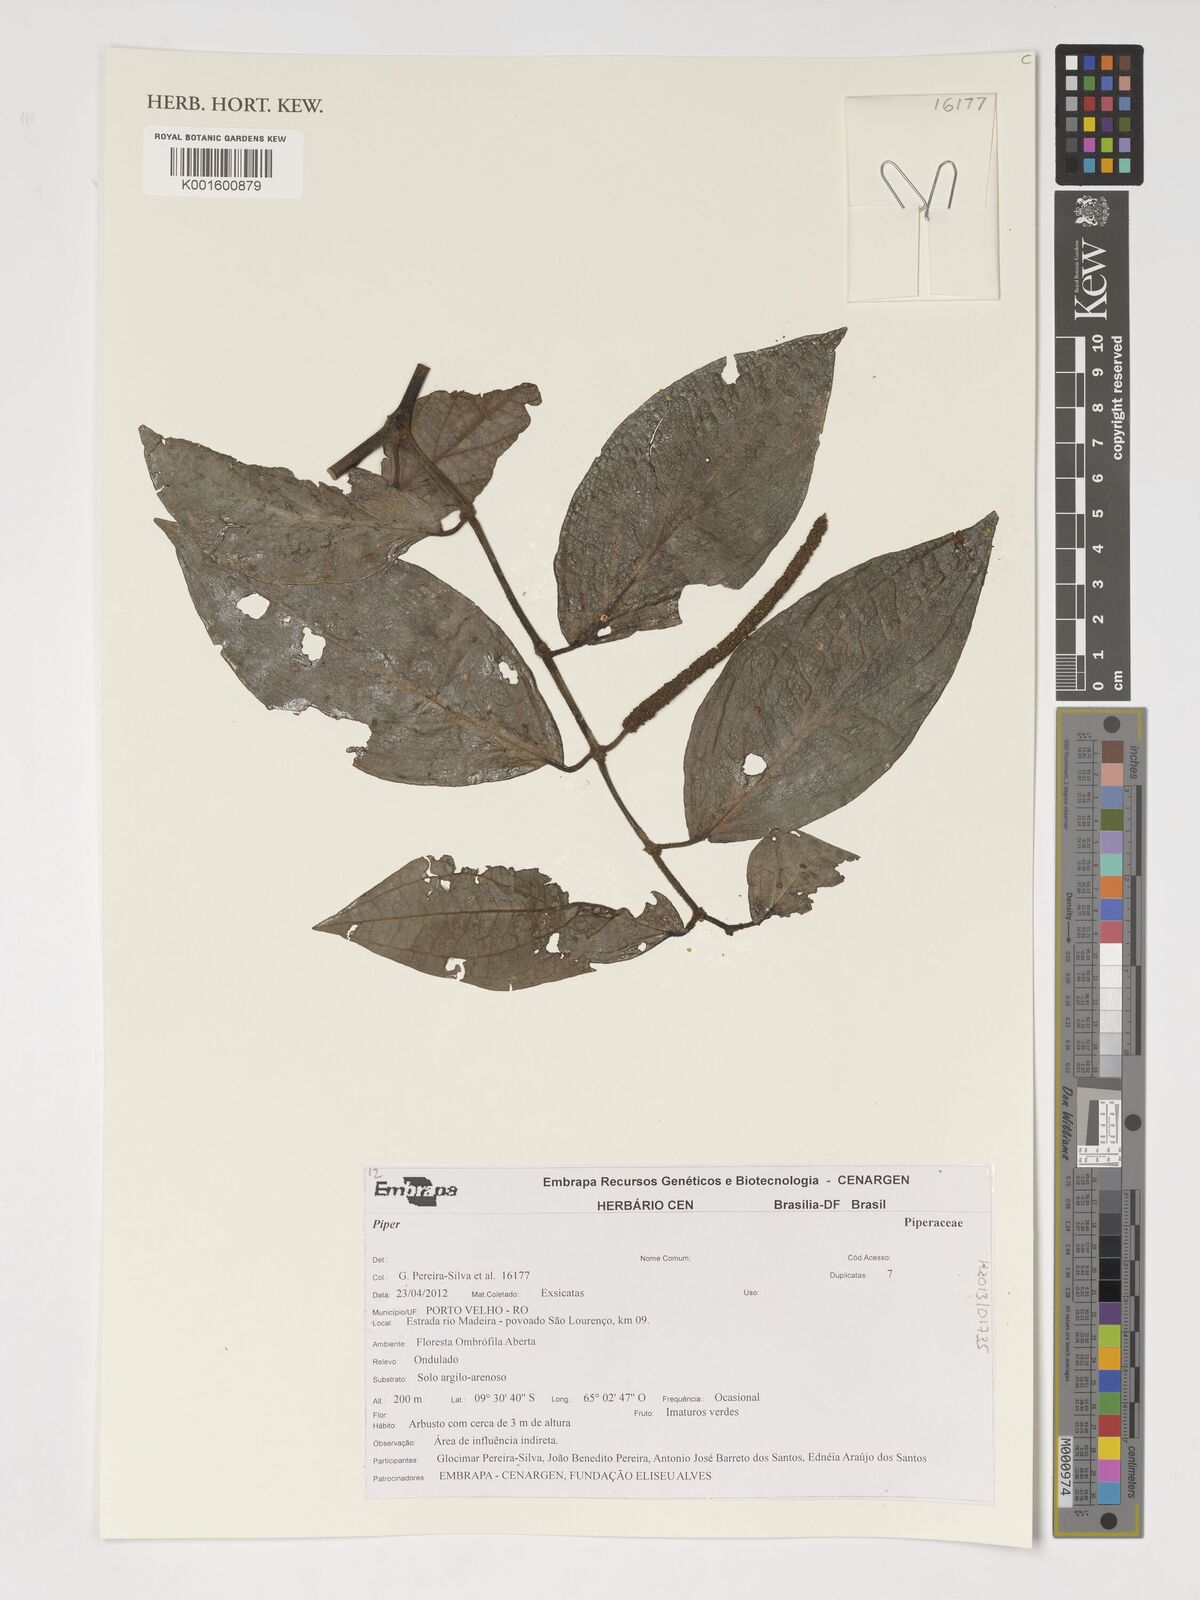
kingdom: Plantae
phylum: Tracheophyta
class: Magnoliopsida
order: Piperales
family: Piperaceae
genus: Piper
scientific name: Piper
